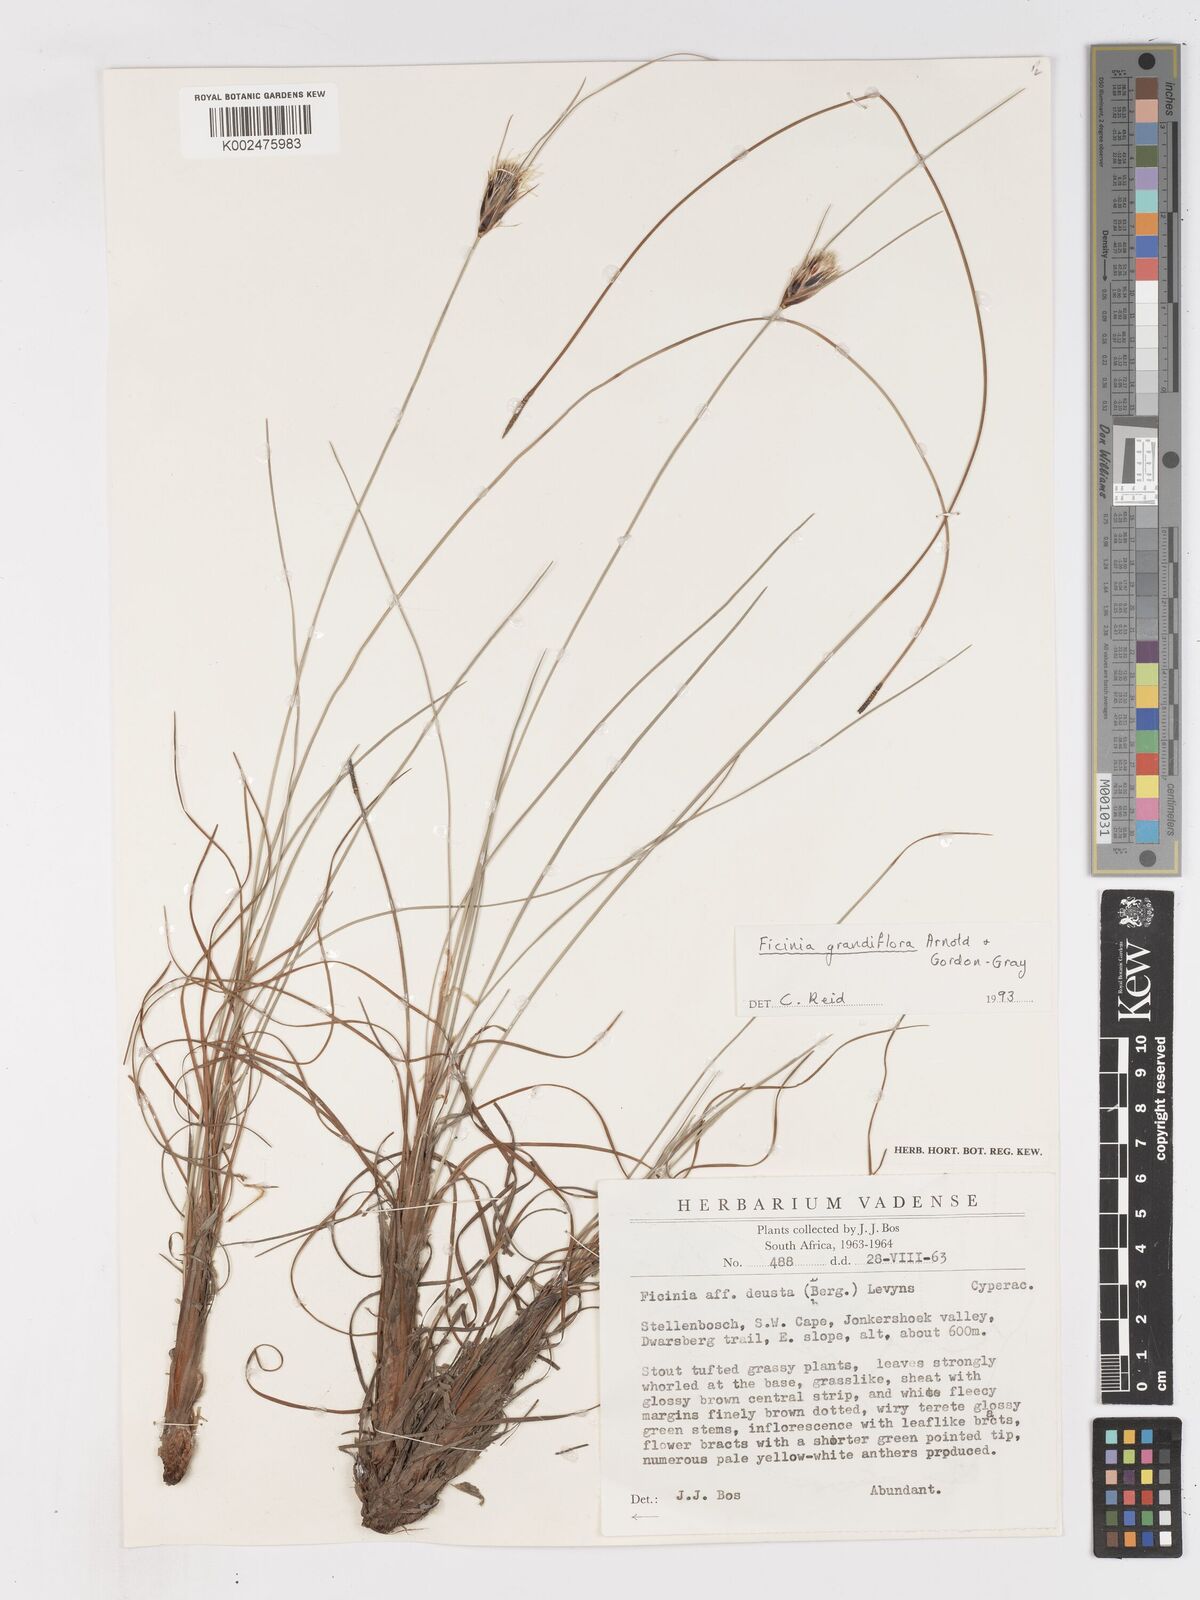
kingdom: Plantae
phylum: Tracheophyta
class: Liliopsida
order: Poales
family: Cyperaceae
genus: Ficinia
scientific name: Ficinia grandiflora
